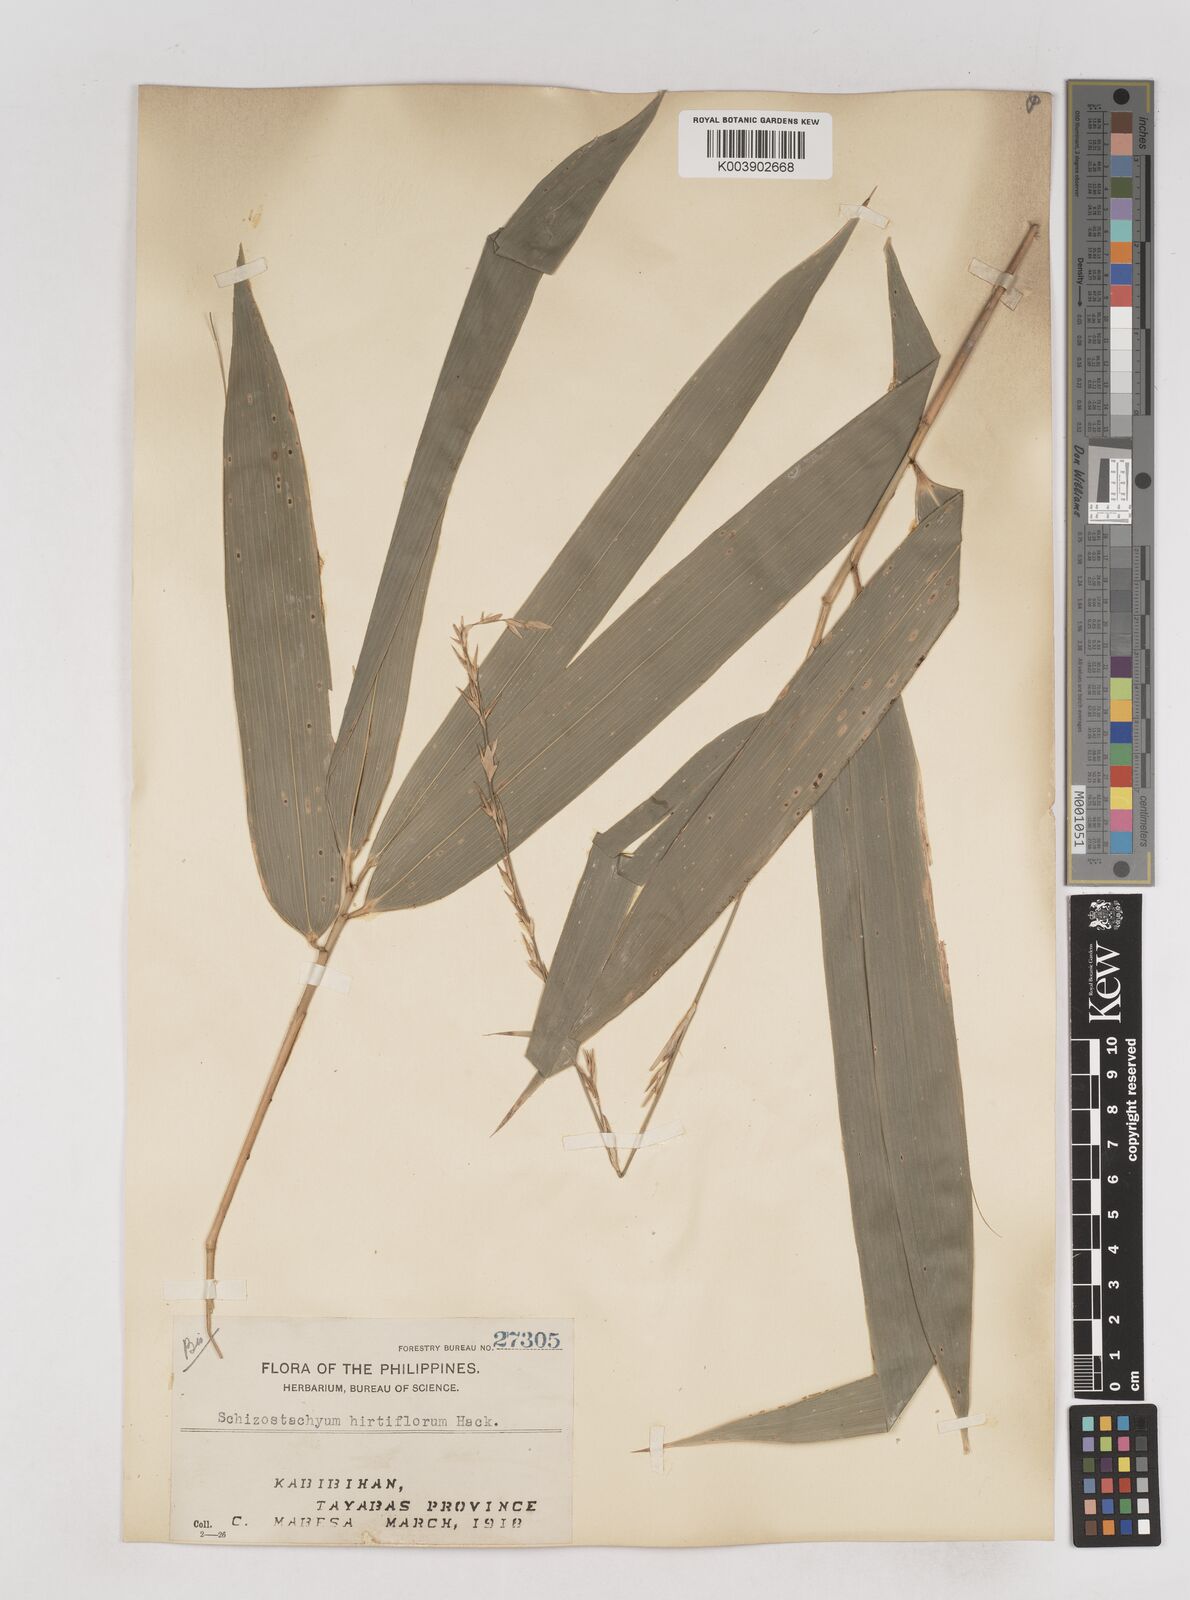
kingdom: Plantae
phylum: Tracheophyta
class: Liliopsida
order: Poales
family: Poaceae
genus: Schizostachyum
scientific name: Schizostachyum lumampao
